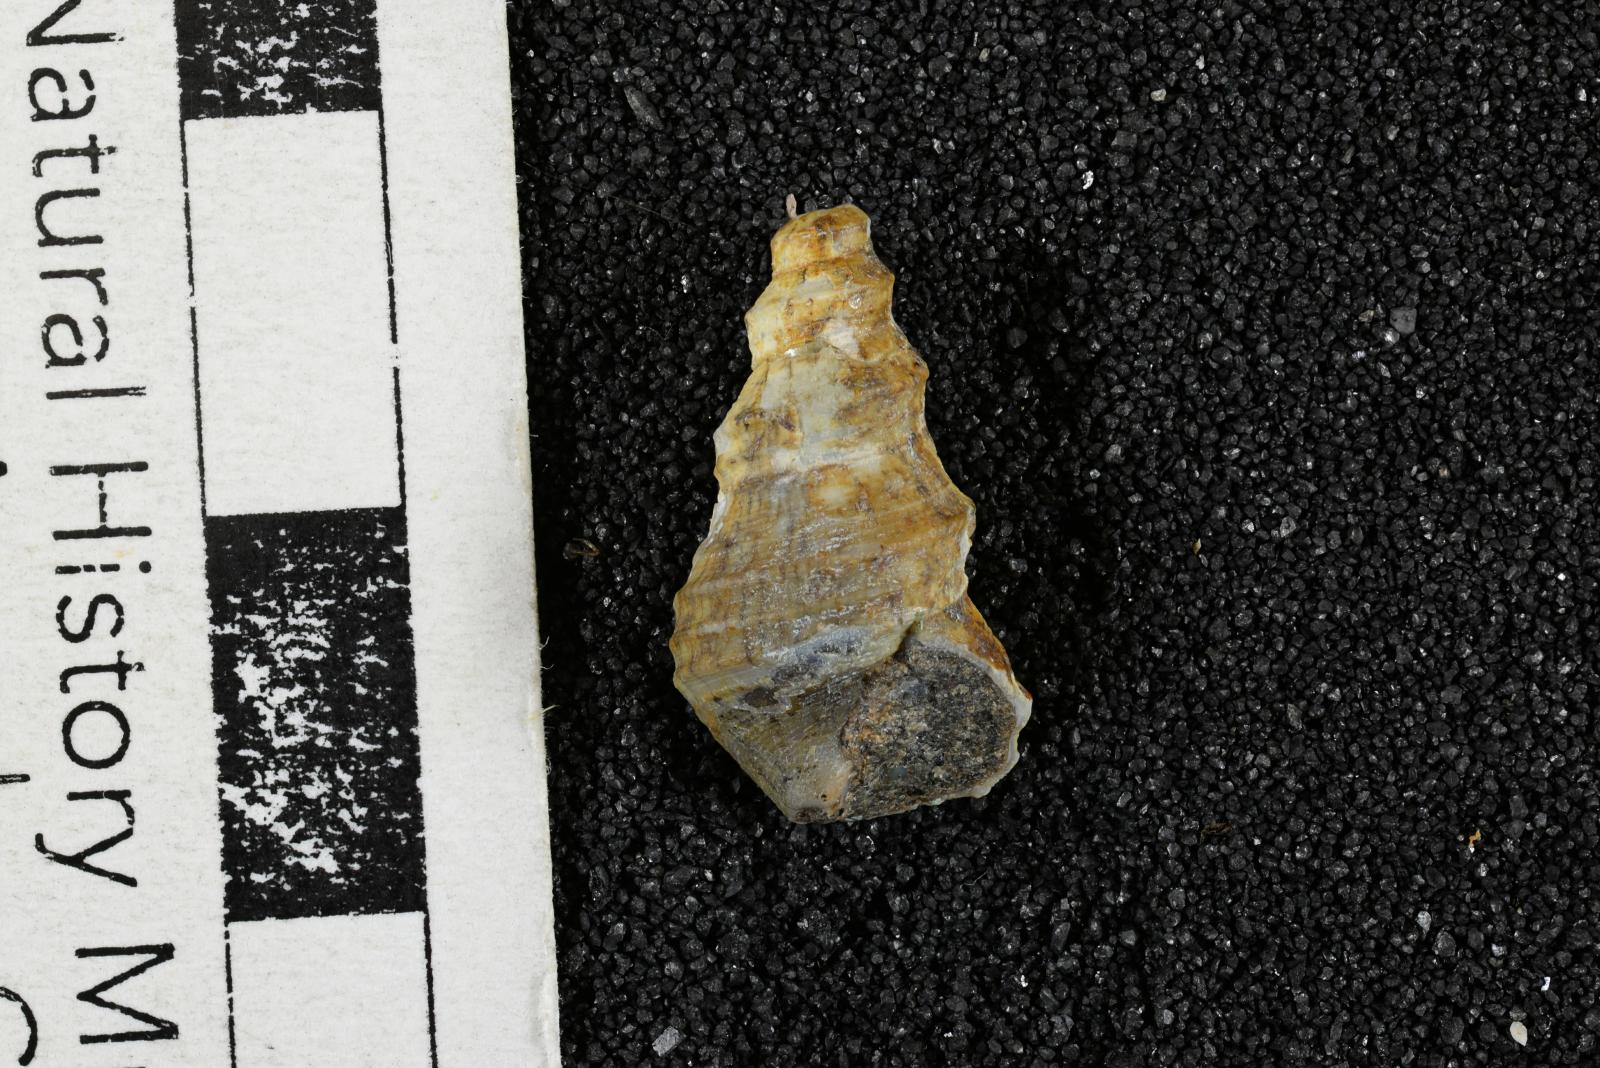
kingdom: Animalia
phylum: Mollusca
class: Gastropoda
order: Littorinimorpha
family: Aporrhaidae
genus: Tessarolax
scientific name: Tessarolax trinalis
